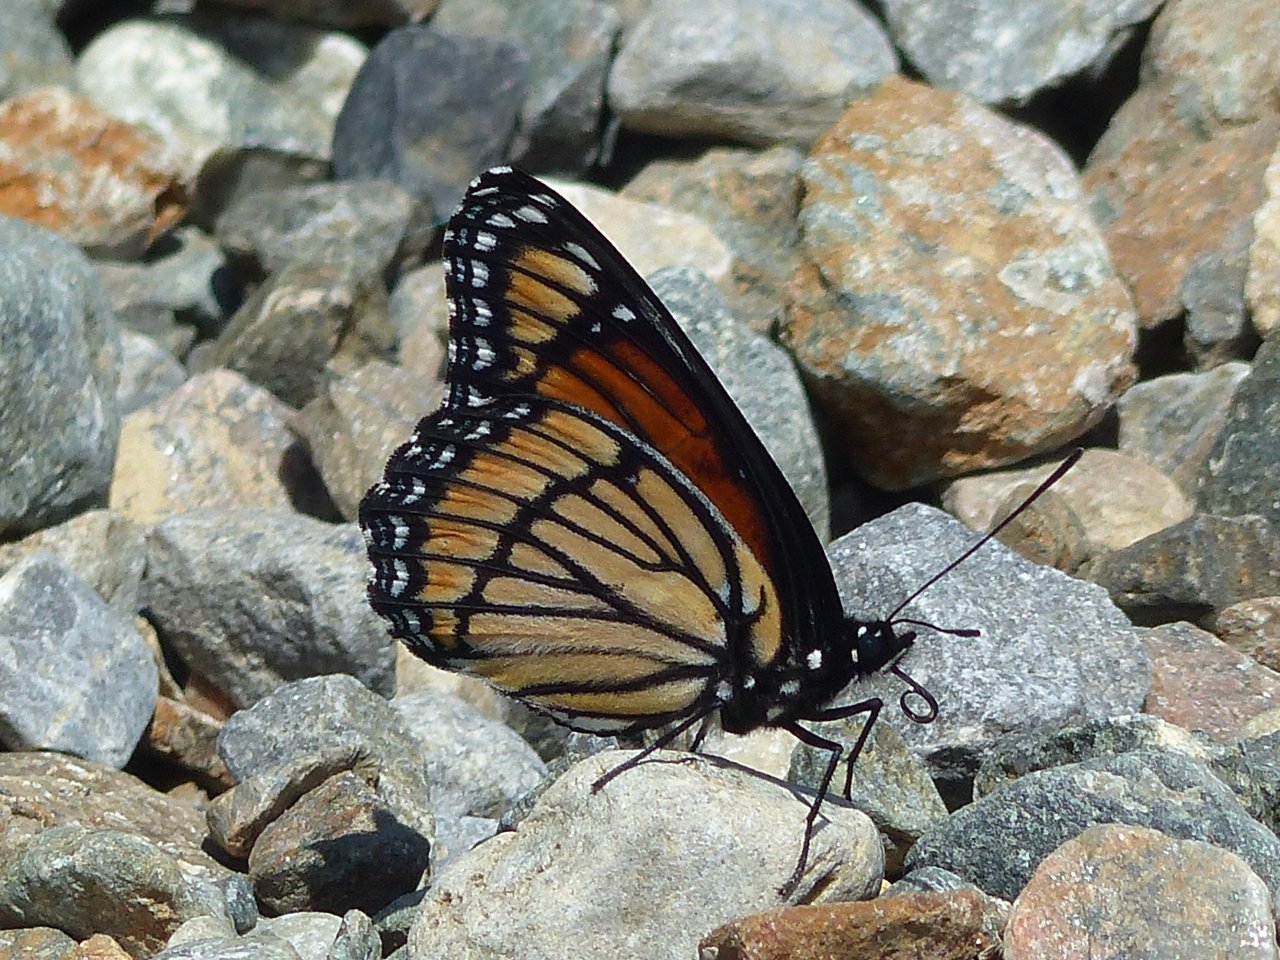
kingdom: Animalia
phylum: Arthropoda
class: Insecta
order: Lepidoptera
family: Nymphalidae
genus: Limenitis
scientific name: Limenitis archippus
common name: Viceroy
